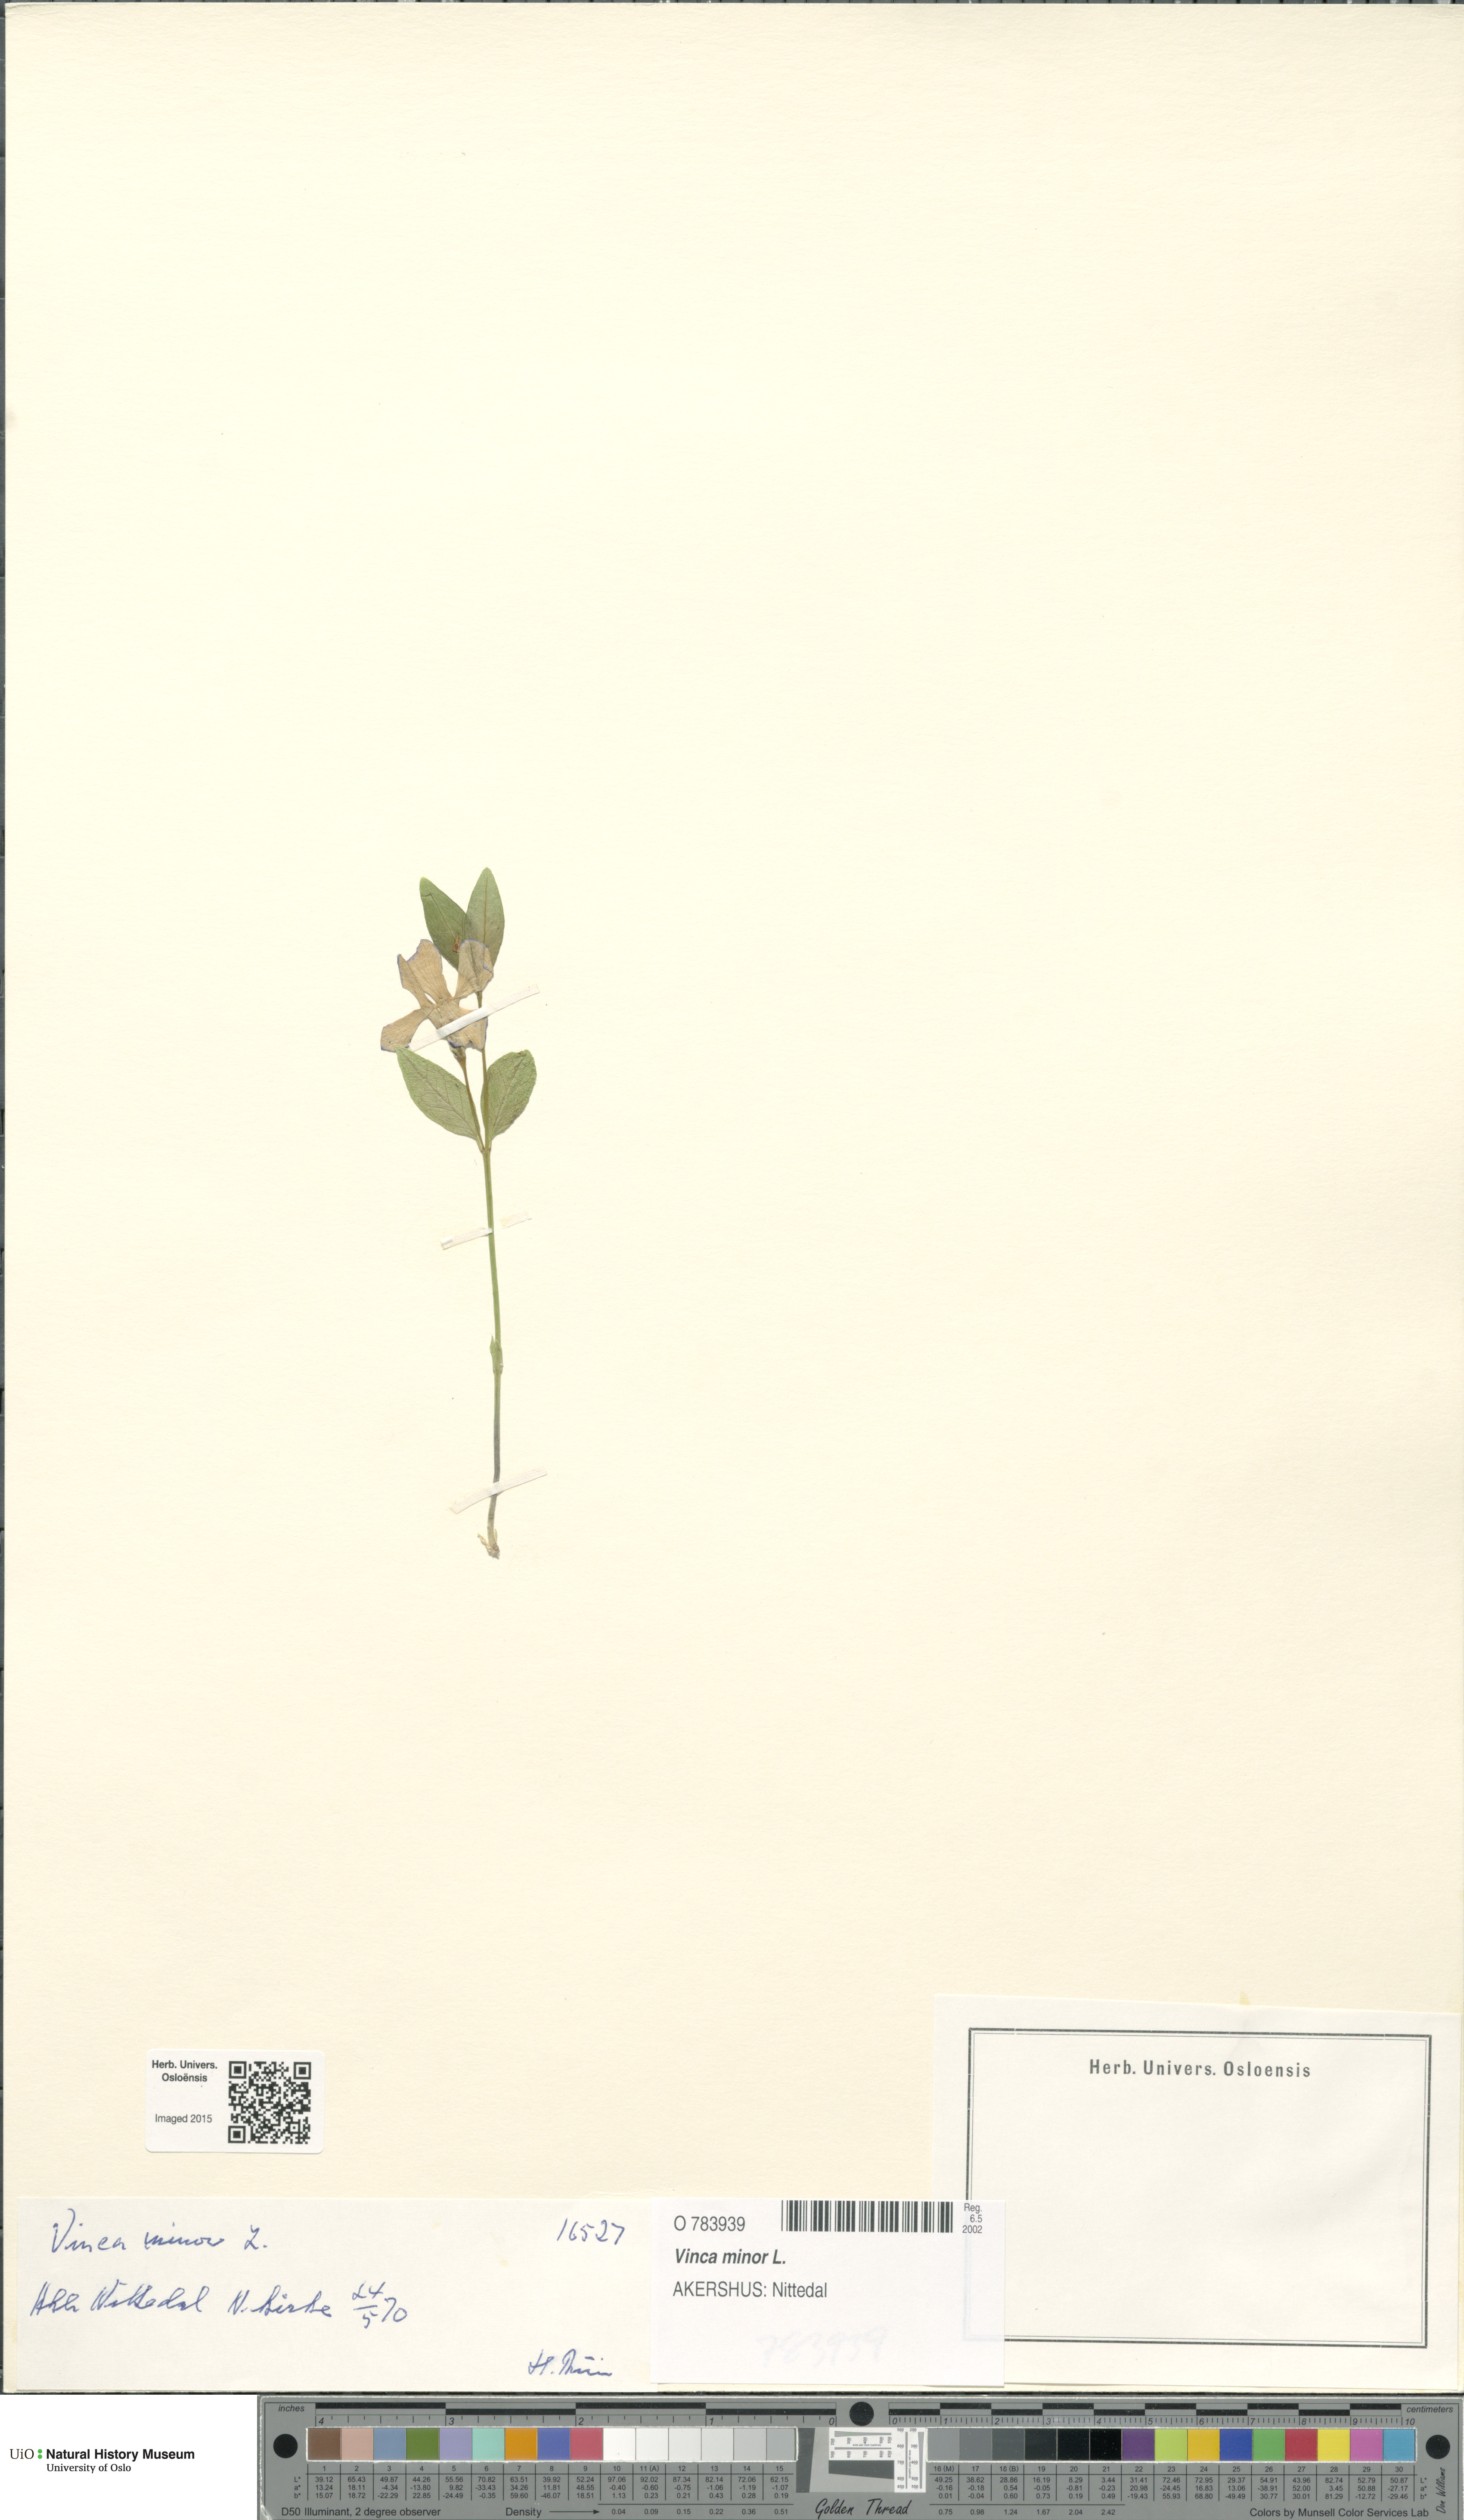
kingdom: Plantae
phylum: Tracheophyta
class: Magnoliopsida
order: Gentianales
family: Apocynaceae
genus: Vinca
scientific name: Vinca minor
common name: Lesser periwinkle
